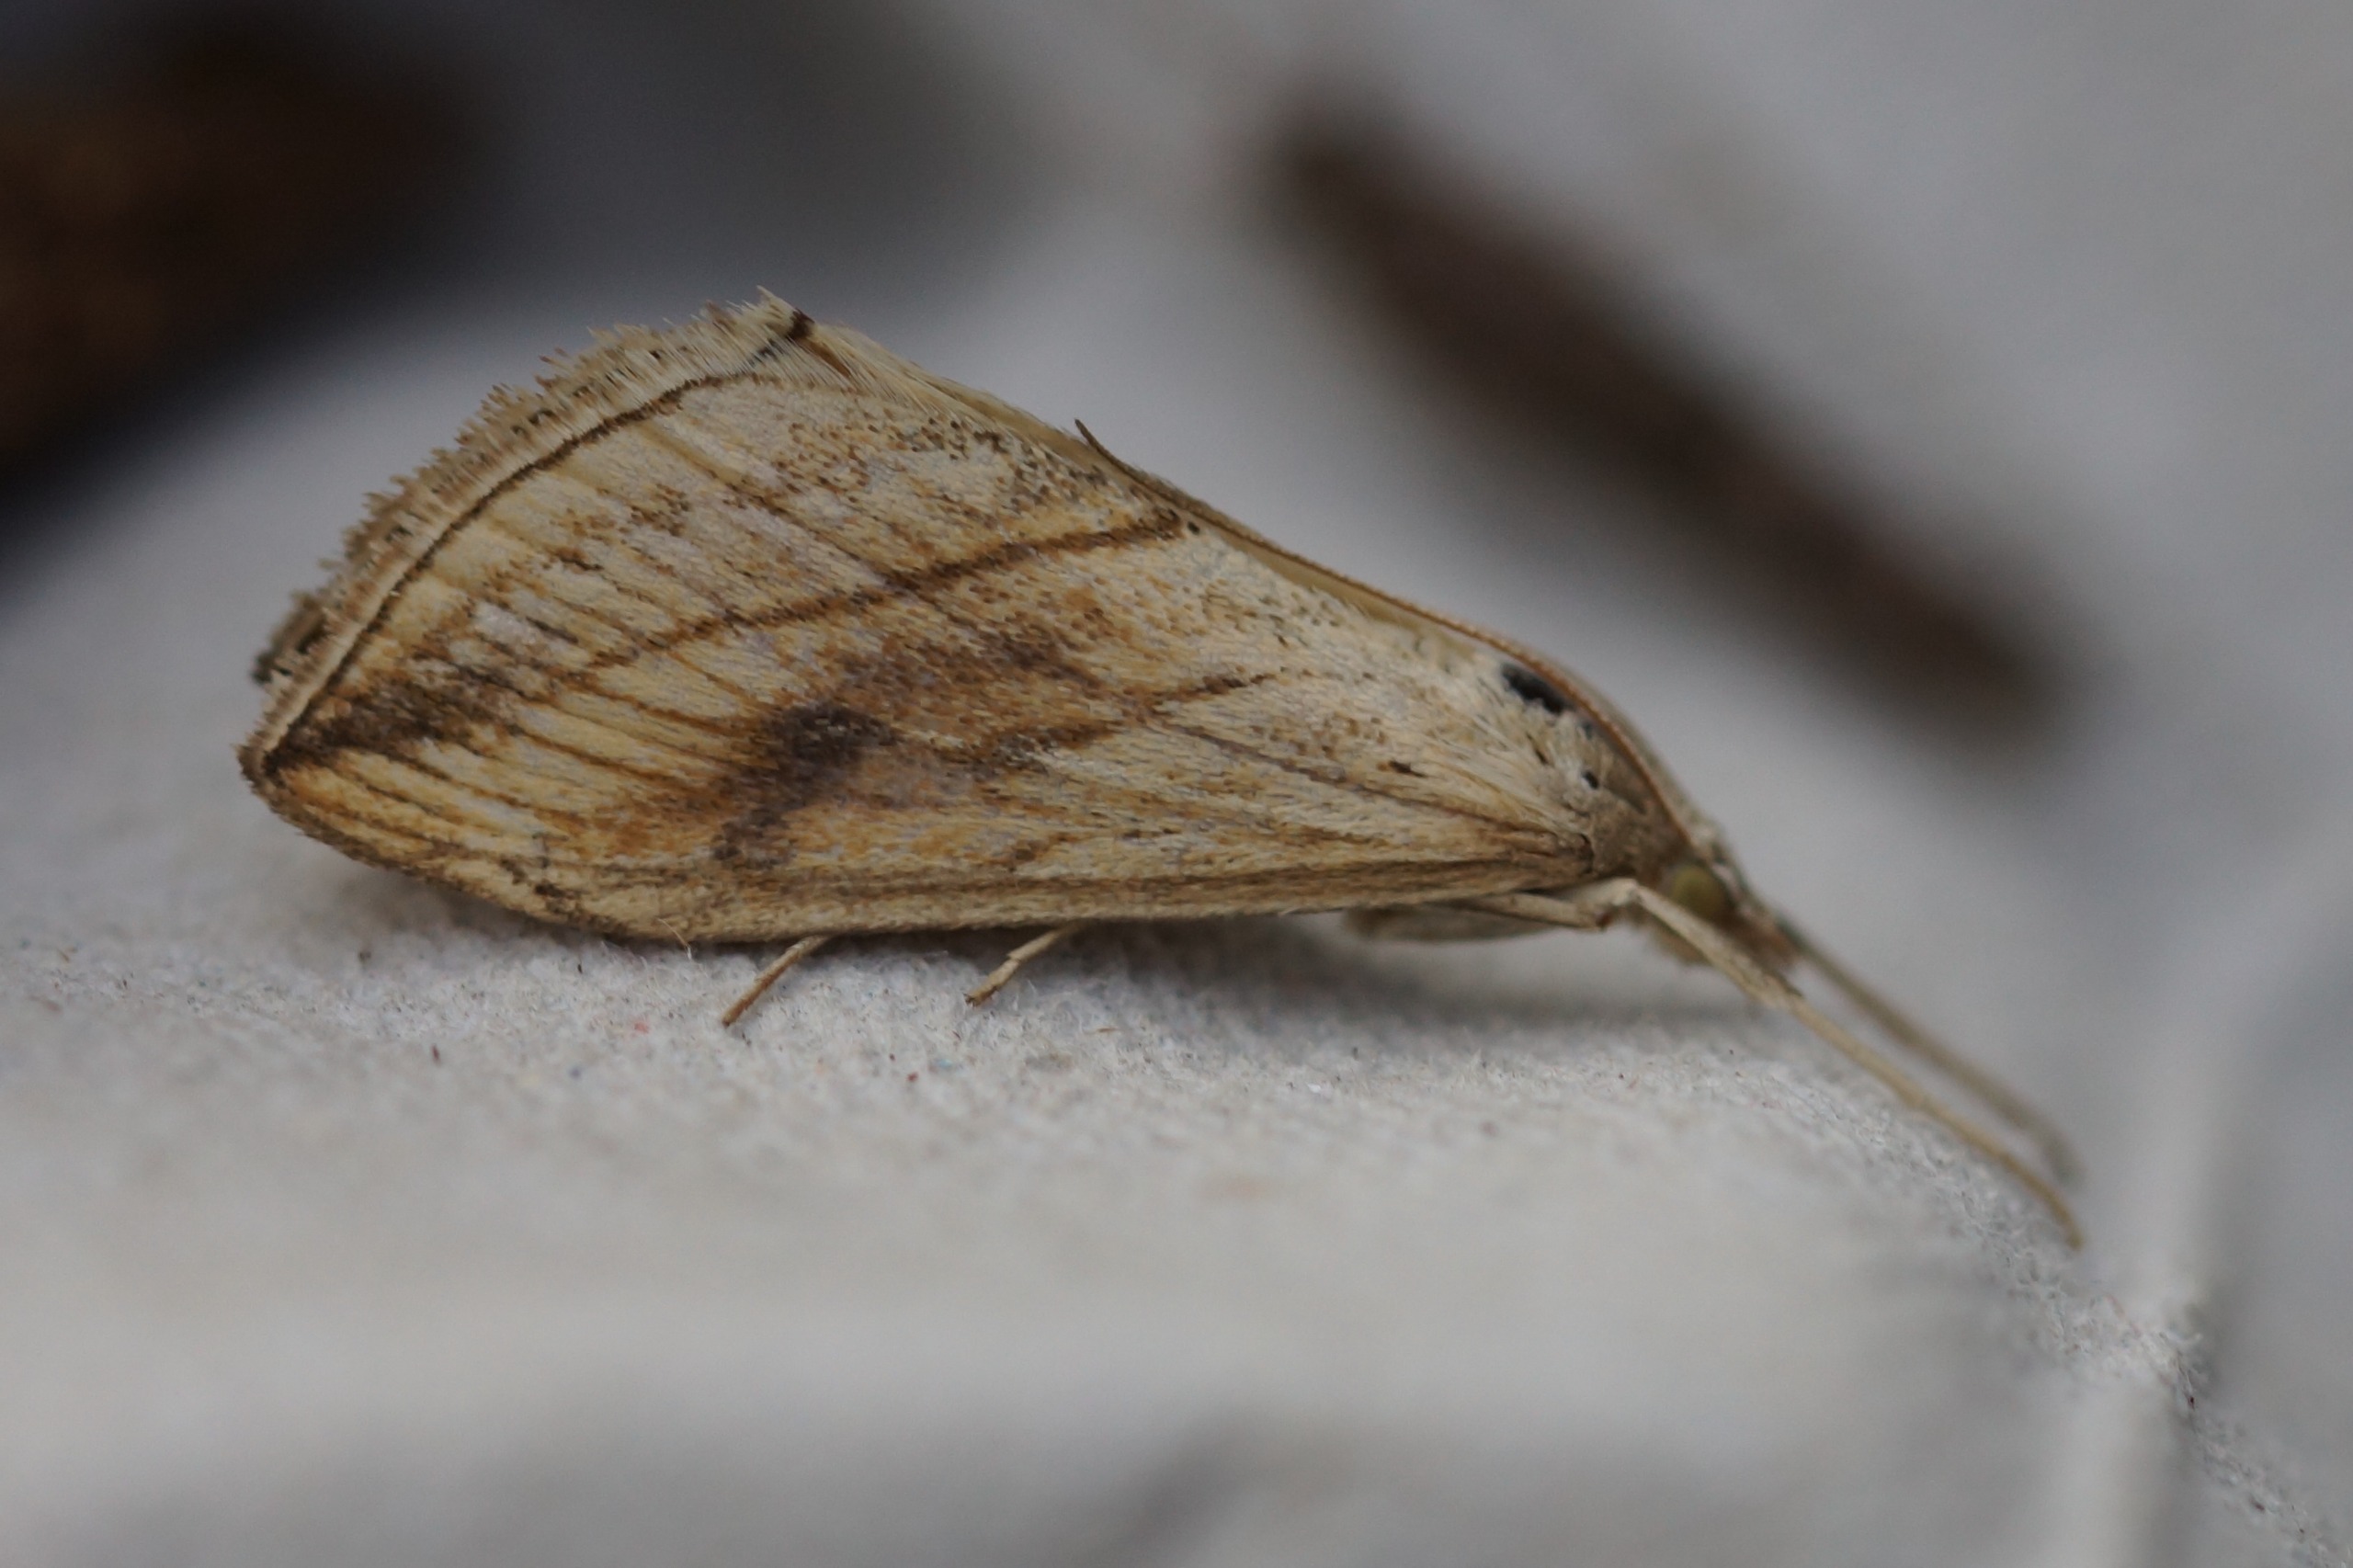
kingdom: Animalia
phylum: Arthropoda
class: Insecta
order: Lepidoptera
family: Crambidae
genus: Evergestis
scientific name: Evergestis forficalis
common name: Kålhalvmøl
